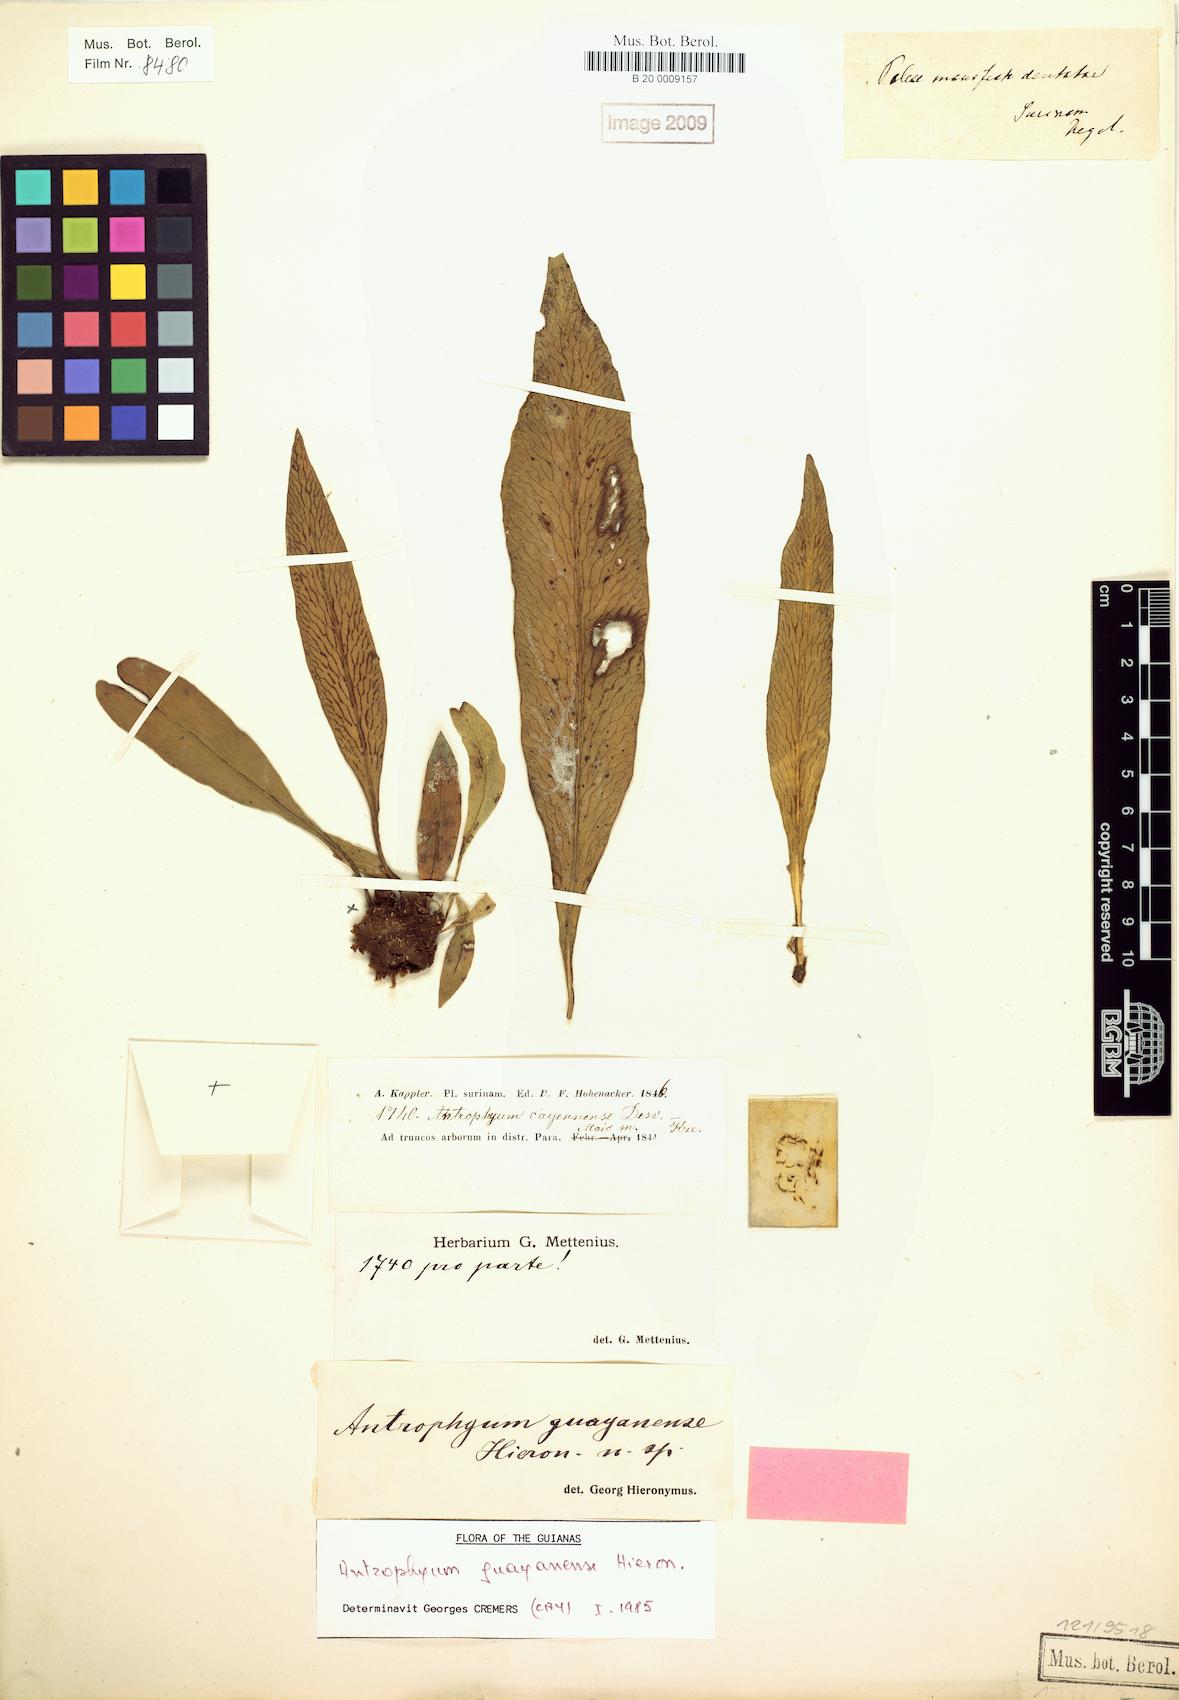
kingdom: Plantae
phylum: Tracheophyta
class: Polypodiopsida
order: Polypodiales
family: Pteridaceae
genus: Polytaenium
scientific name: Polytaenium guayanense
